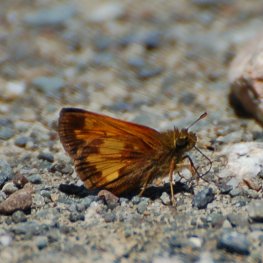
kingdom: Animalia
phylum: Arthropoda
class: Insecta
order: Lepidoptera
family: Hesperiidae
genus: Lon
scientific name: Lon hobomok
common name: Hobomok Skipper
